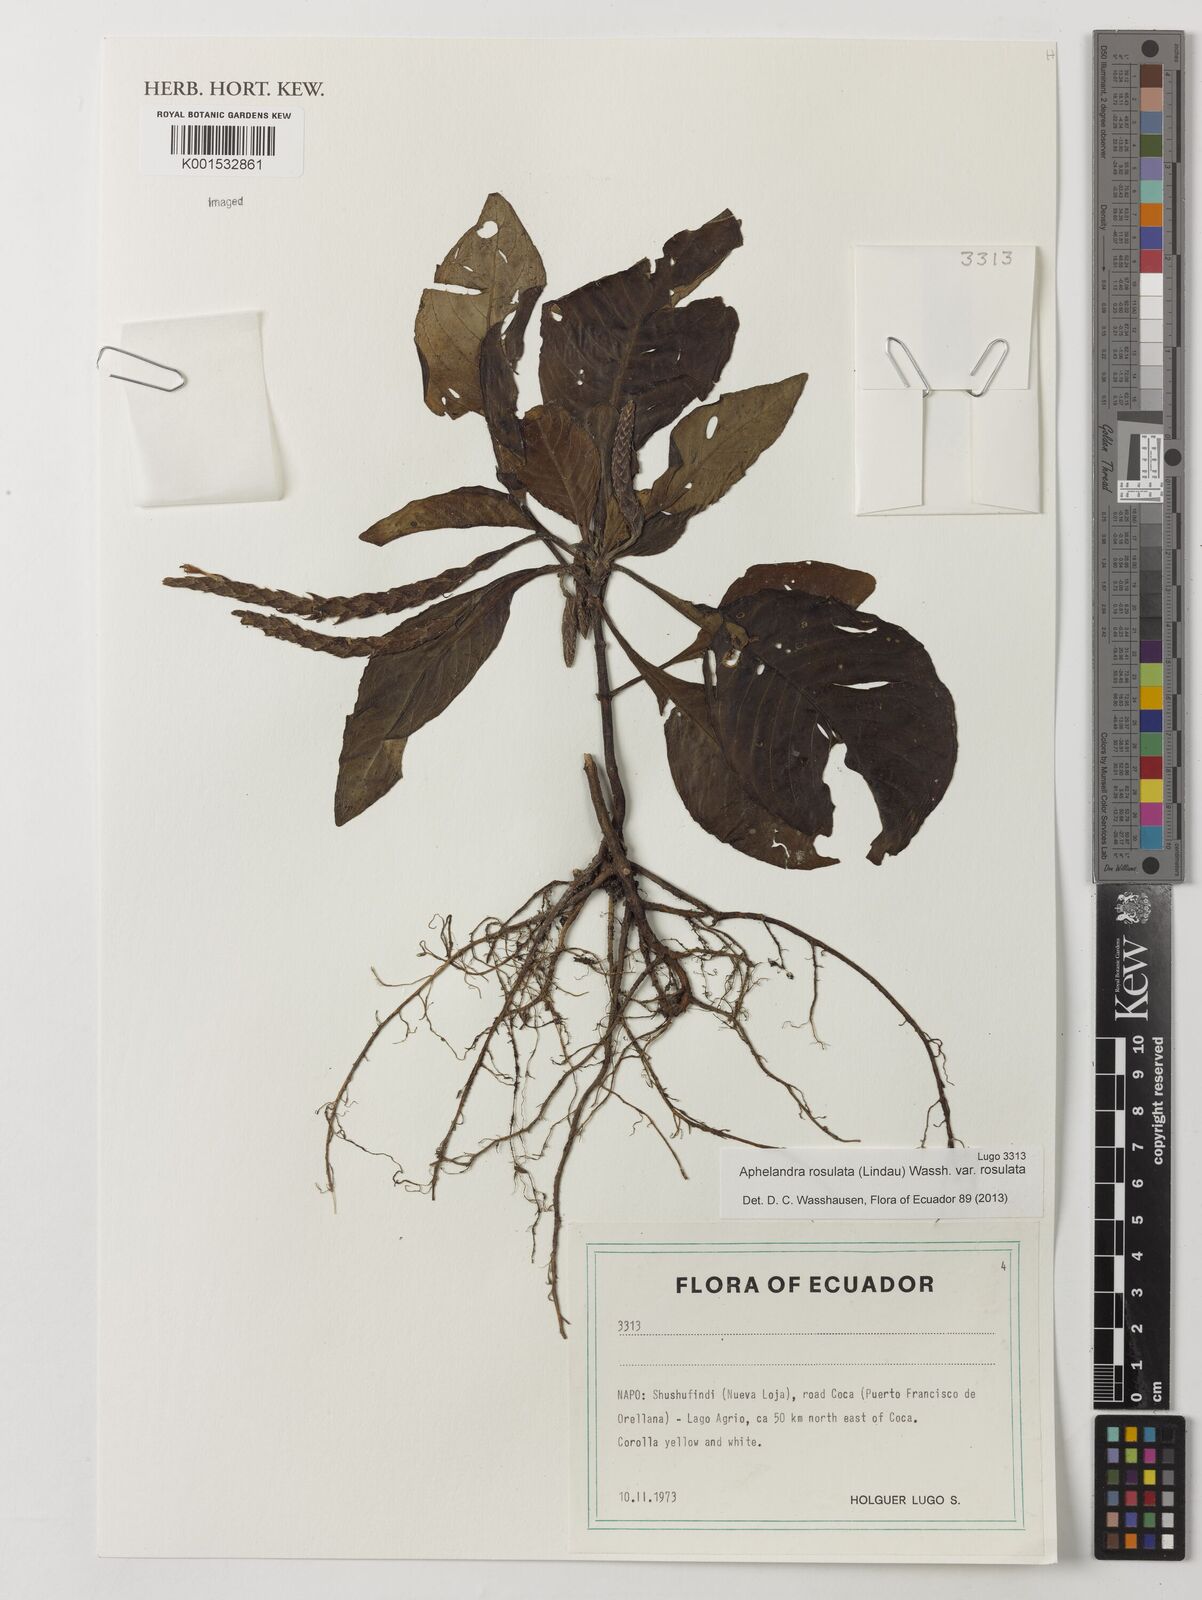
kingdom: Plantae
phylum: Tracheophyta
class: Magnoliopsida
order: Lamiales
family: Acanthaceae
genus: Aphelandra
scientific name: Aphelandra rosulata
